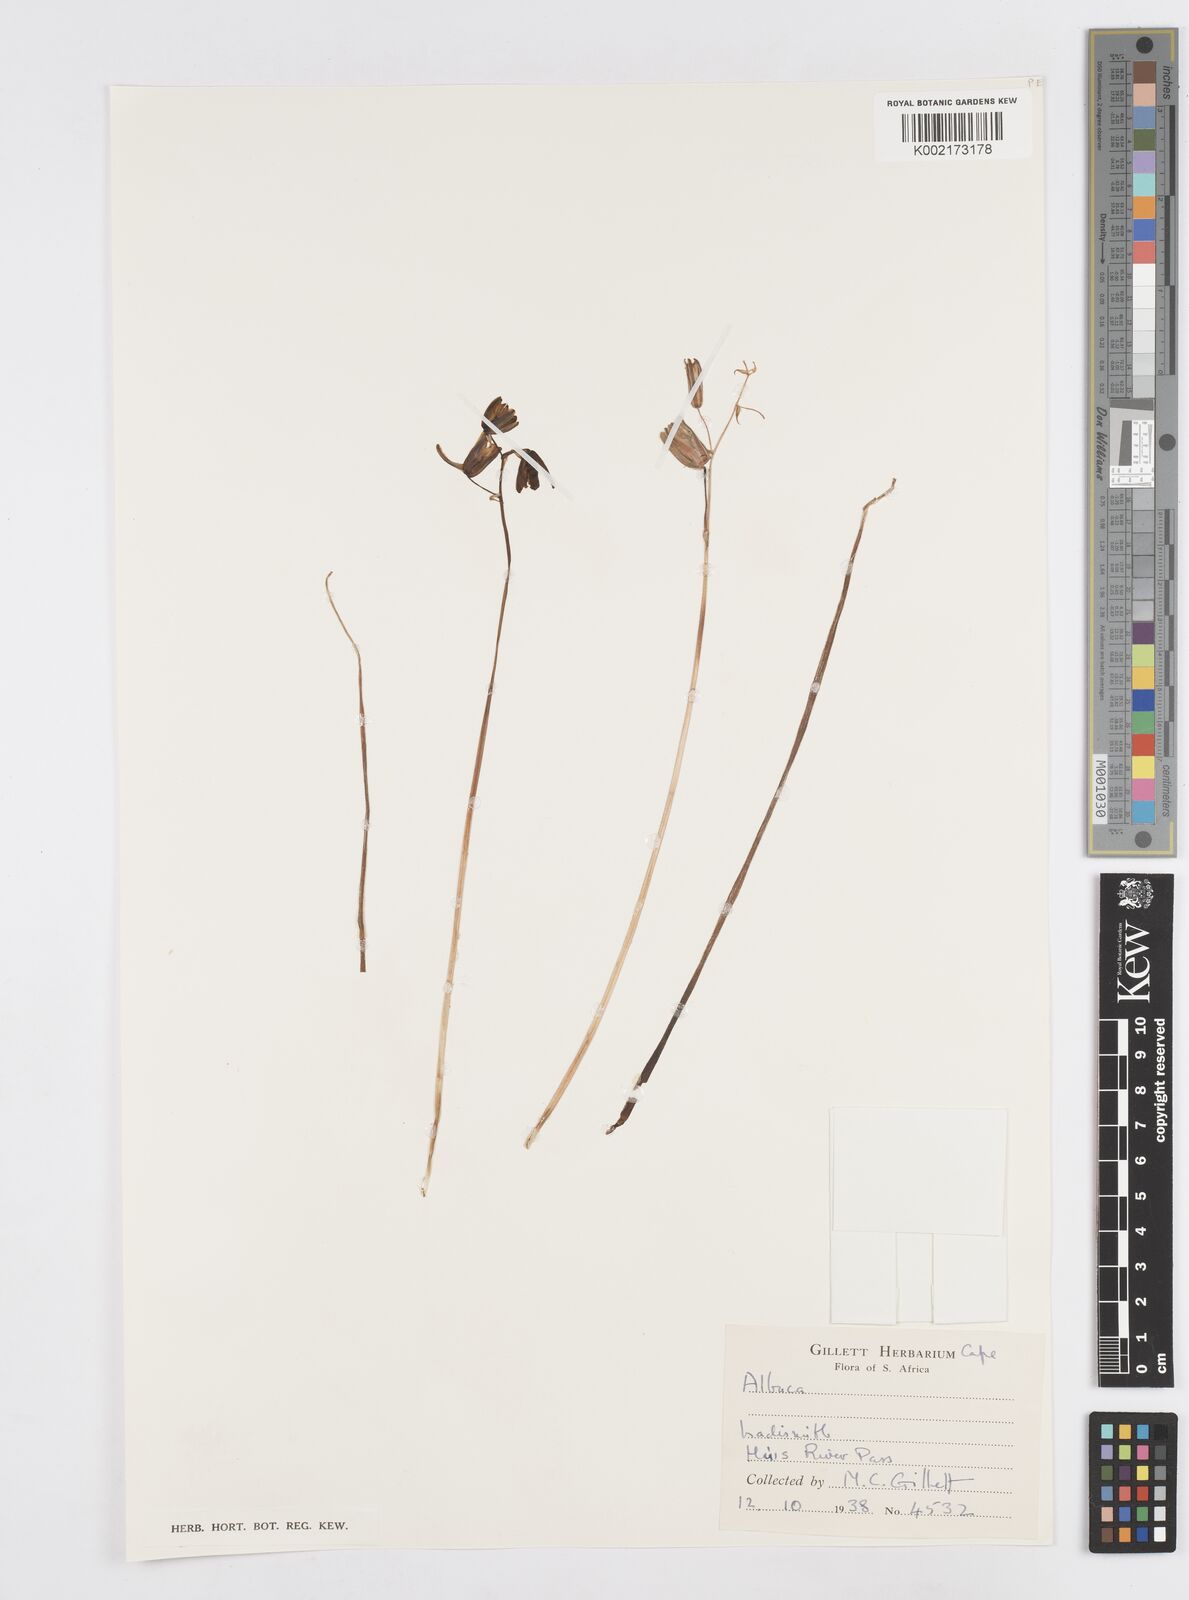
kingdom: Plantae
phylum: Tracheophyta
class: Liliopsida
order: Asparagales
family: Asparagaceae
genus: Albuca
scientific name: Albuca
